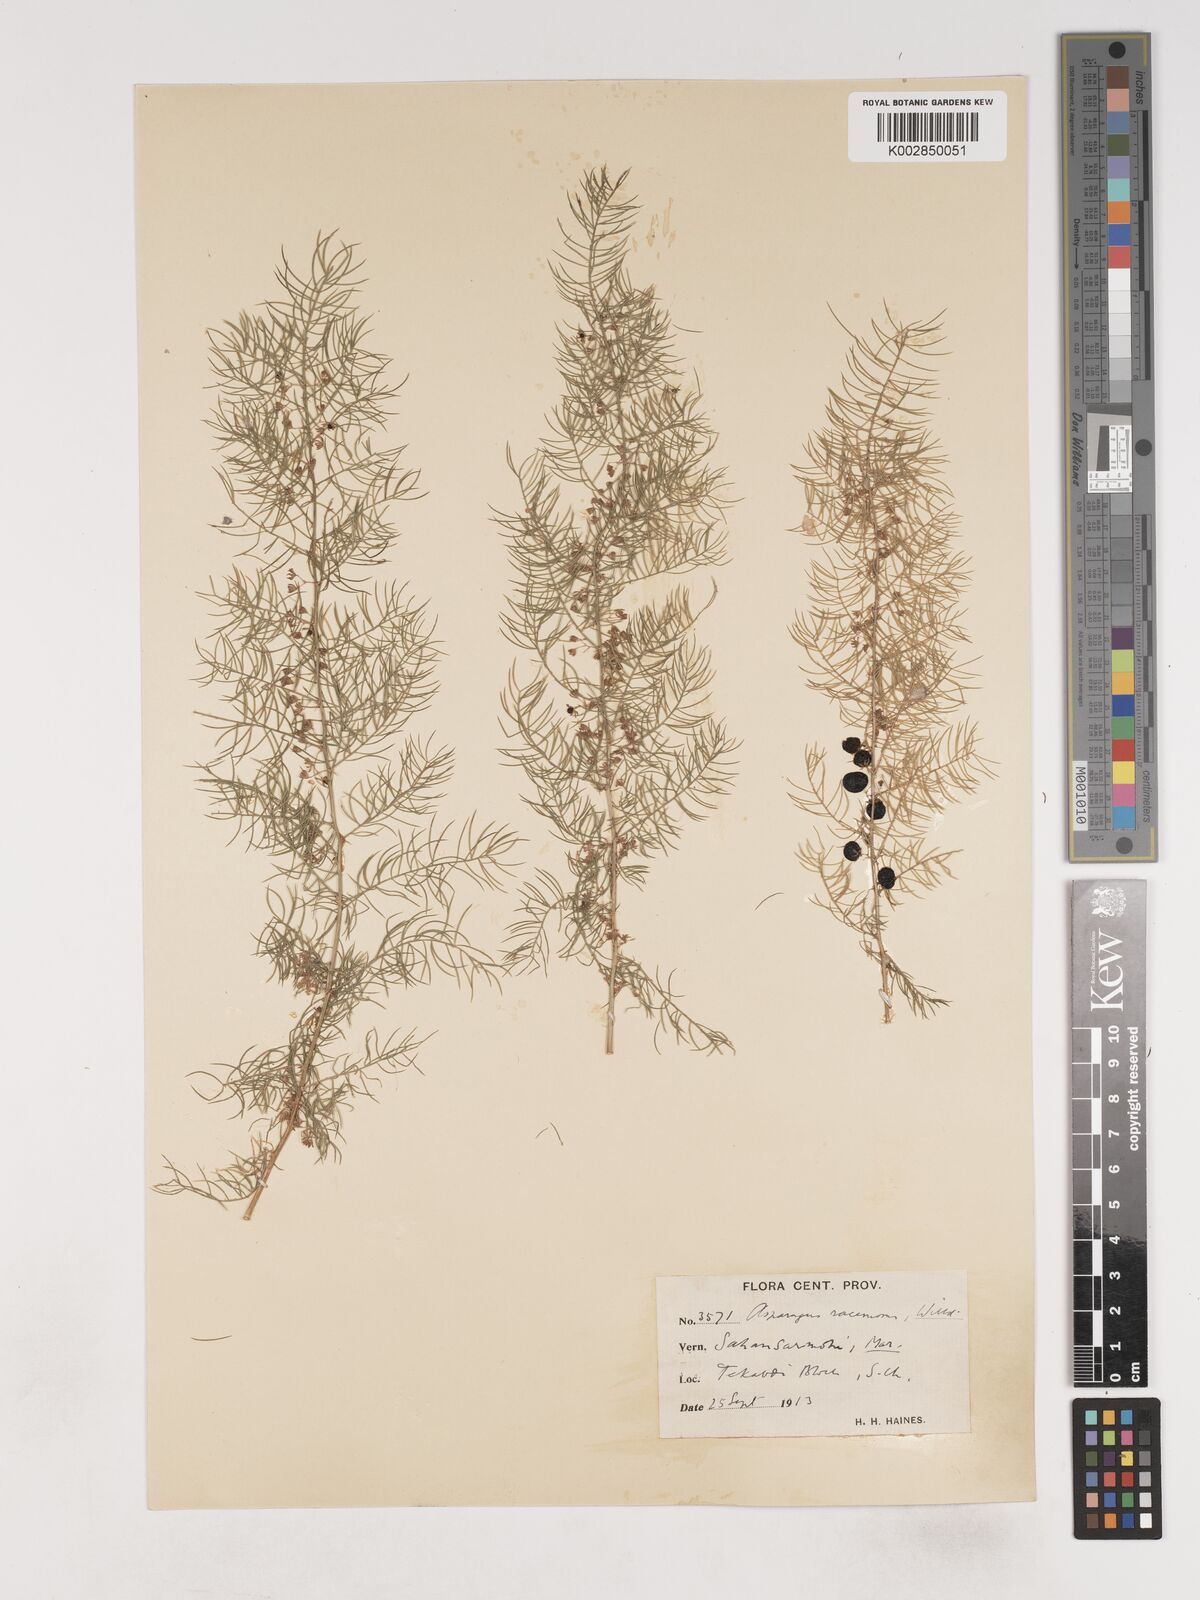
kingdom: Plantae
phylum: Tracheophyta
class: Liliopsida
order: Asparagales
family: Asparagaceae
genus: Asparagus
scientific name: Asparagus racemosus
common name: Asparagus-fern
